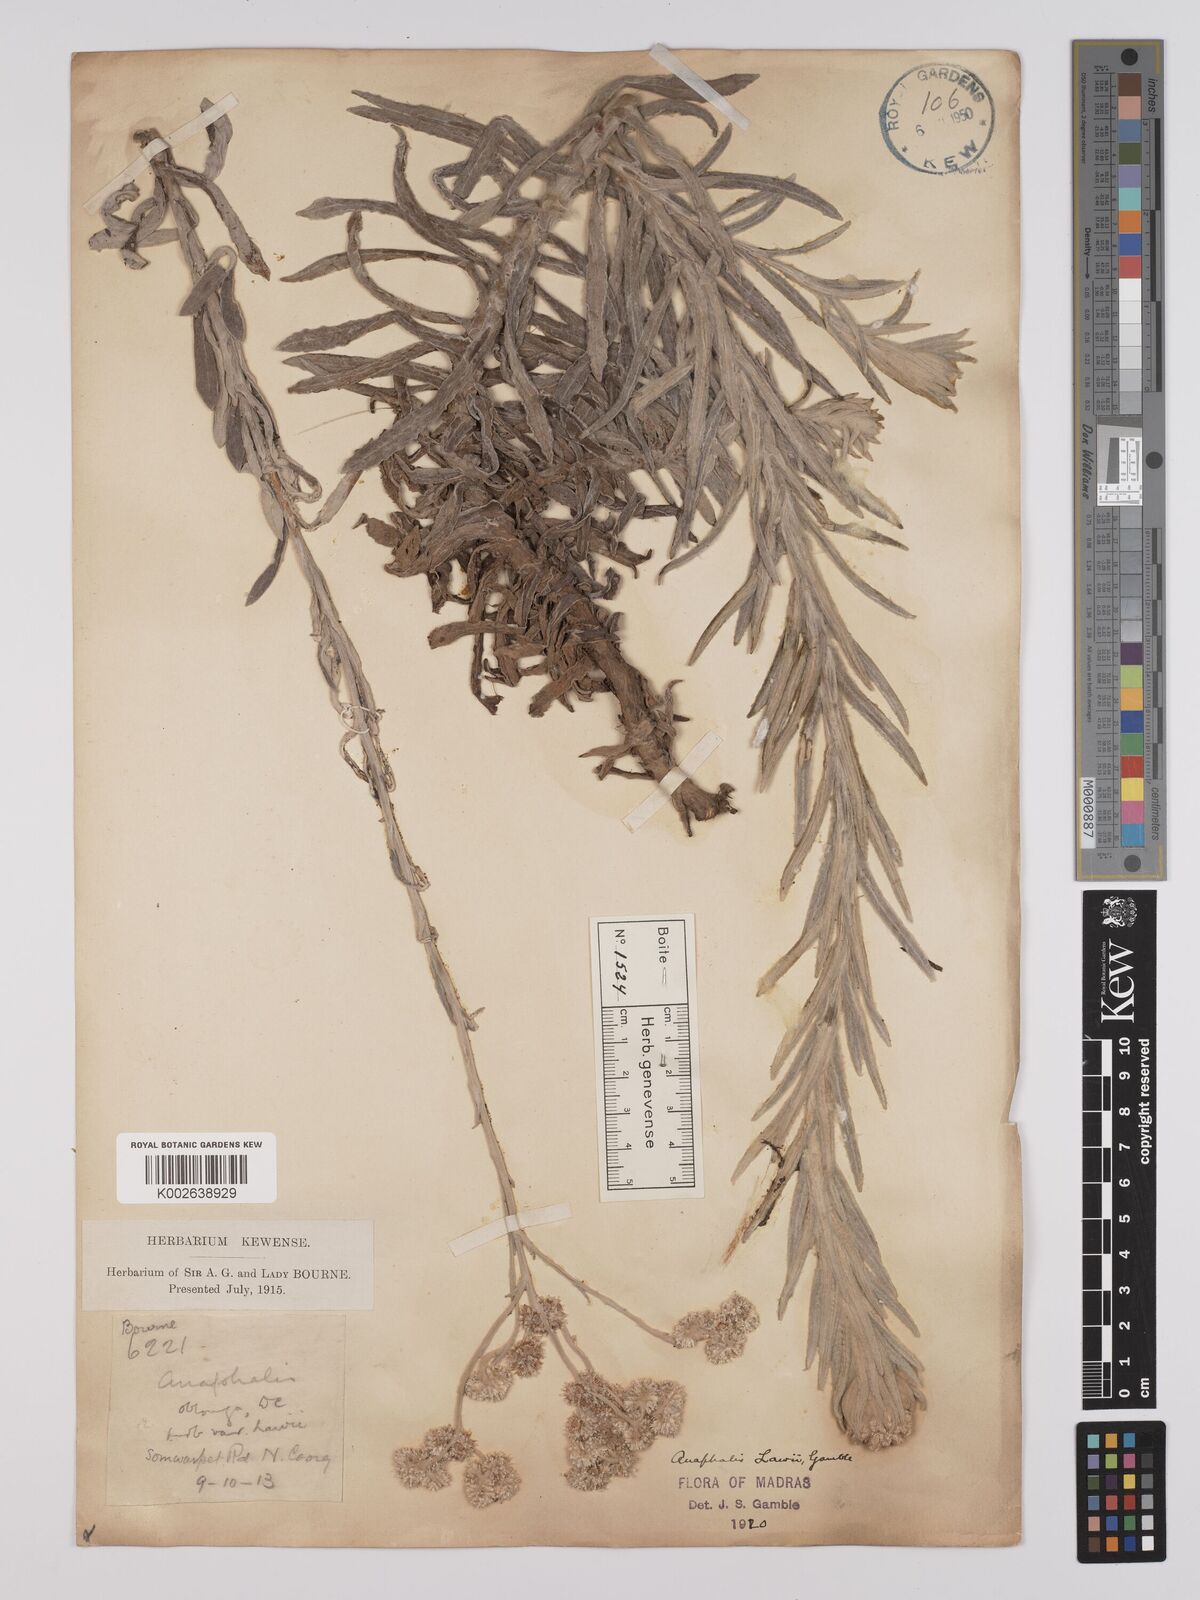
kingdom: Plantae
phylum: Tracheophyta
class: Magnoliopsida
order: Asterales
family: Asteraceae
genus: Anaphalis
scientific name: Anaphalis lawii
